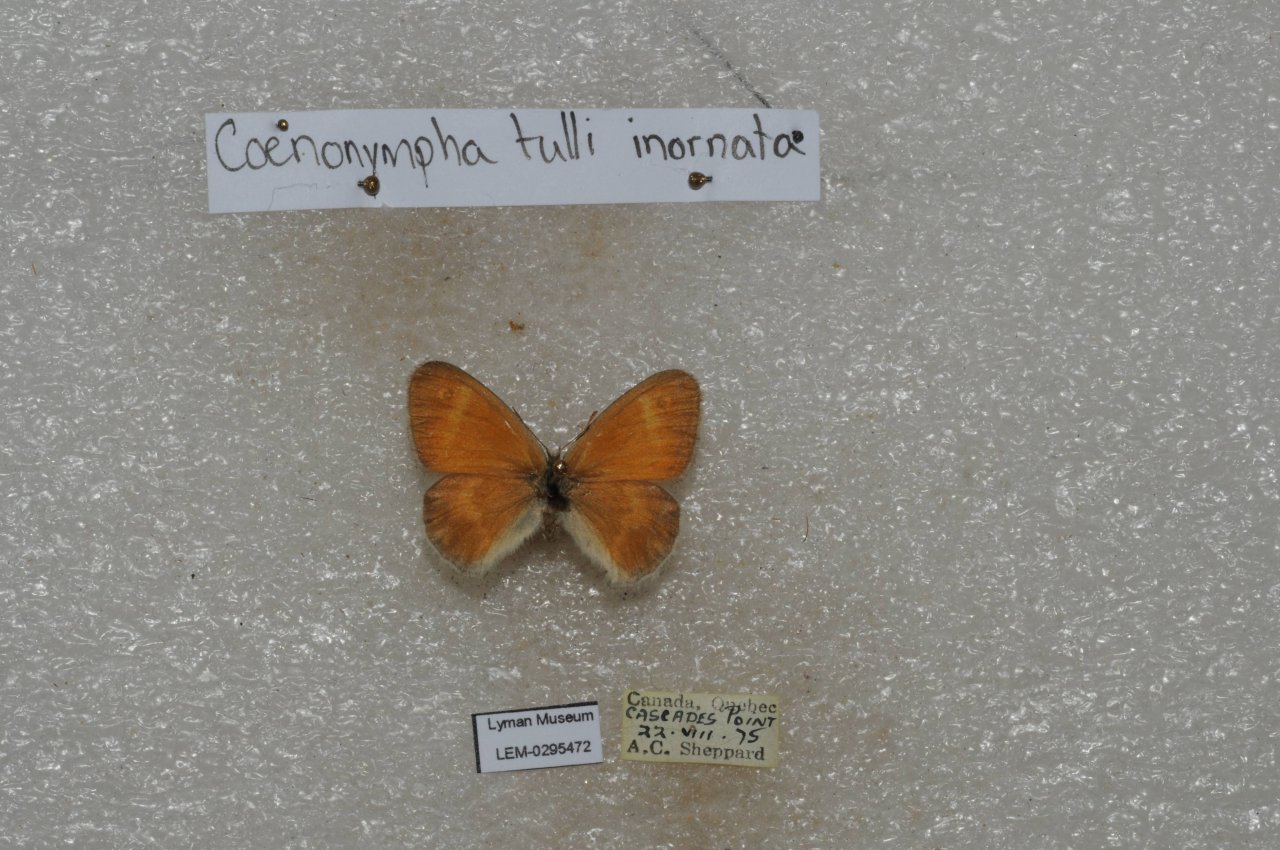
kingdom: Animalia
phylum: Arthropoda
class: Insecta
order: Lepidoptera
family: Nymphalidae
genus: Coenonympha
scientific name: Coenonympha tullia
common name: Large Heath
